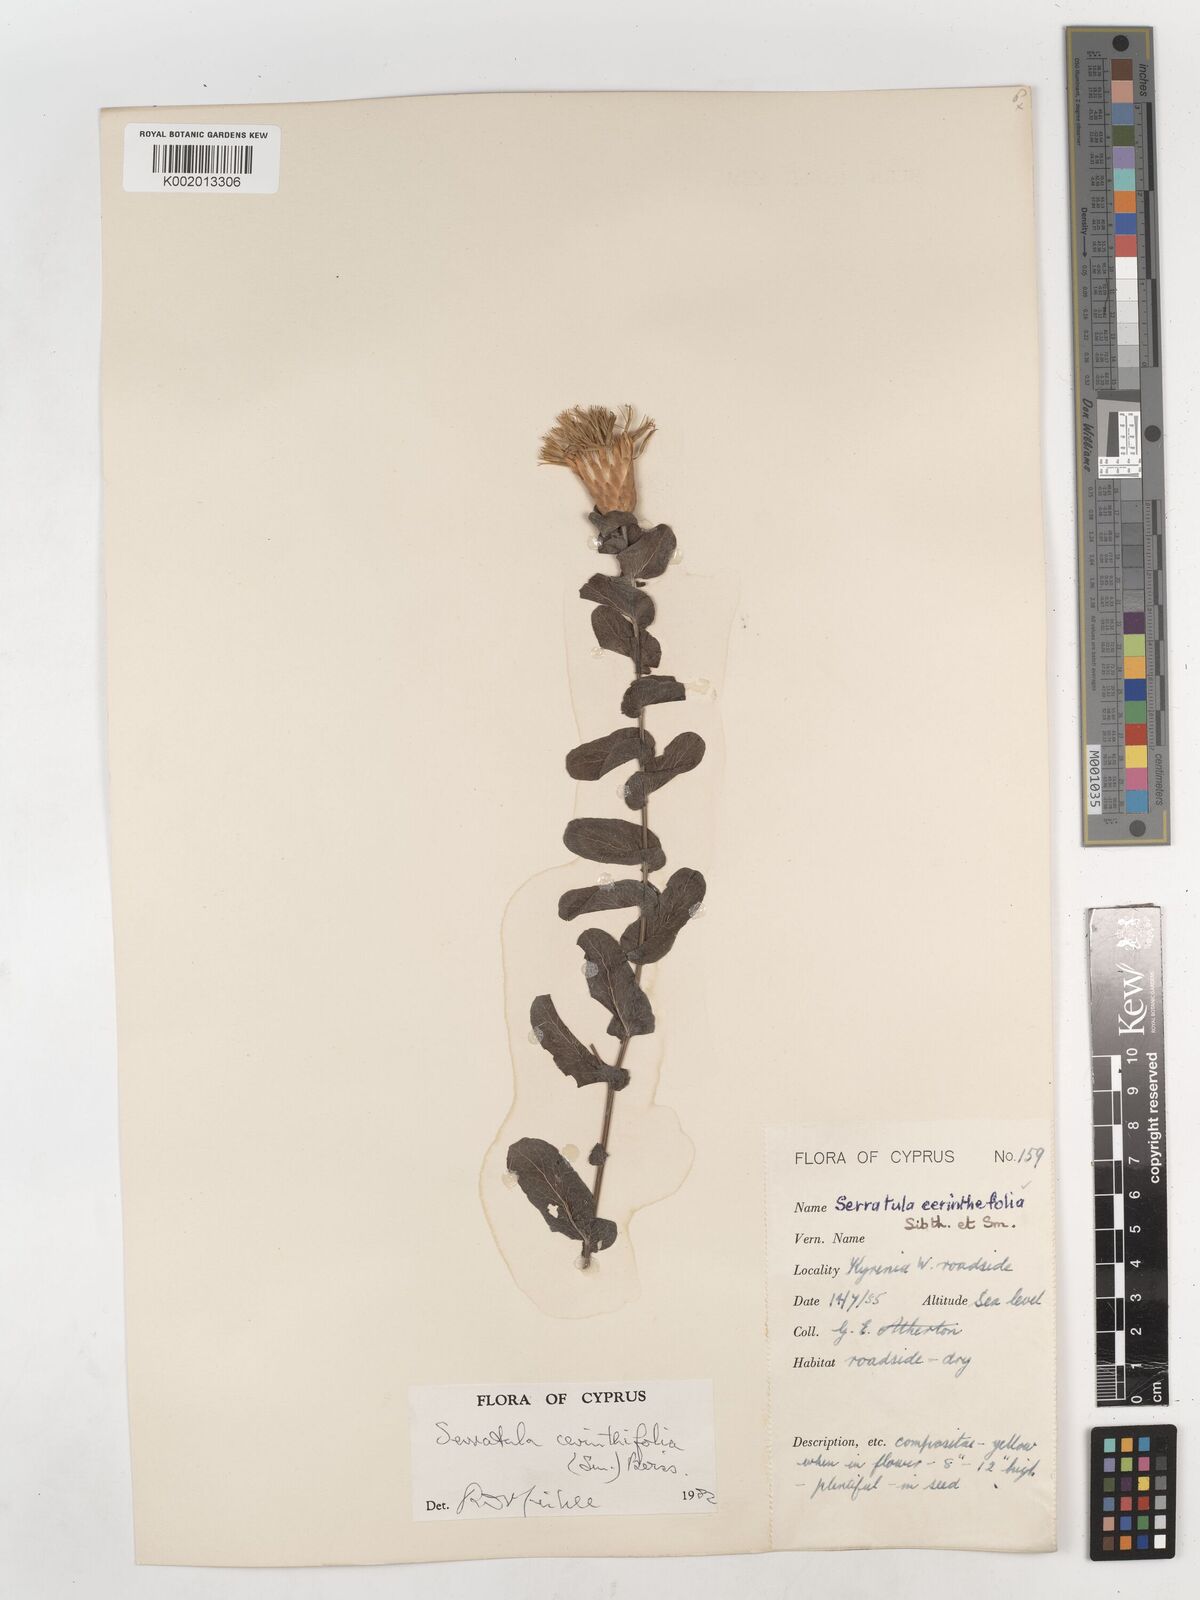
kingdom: Plantae
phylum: Tracheophyta
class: Magnoliopsida
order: Asterales
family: Asteraceae
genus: Klasea
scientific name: Klasea cerinthifolia
